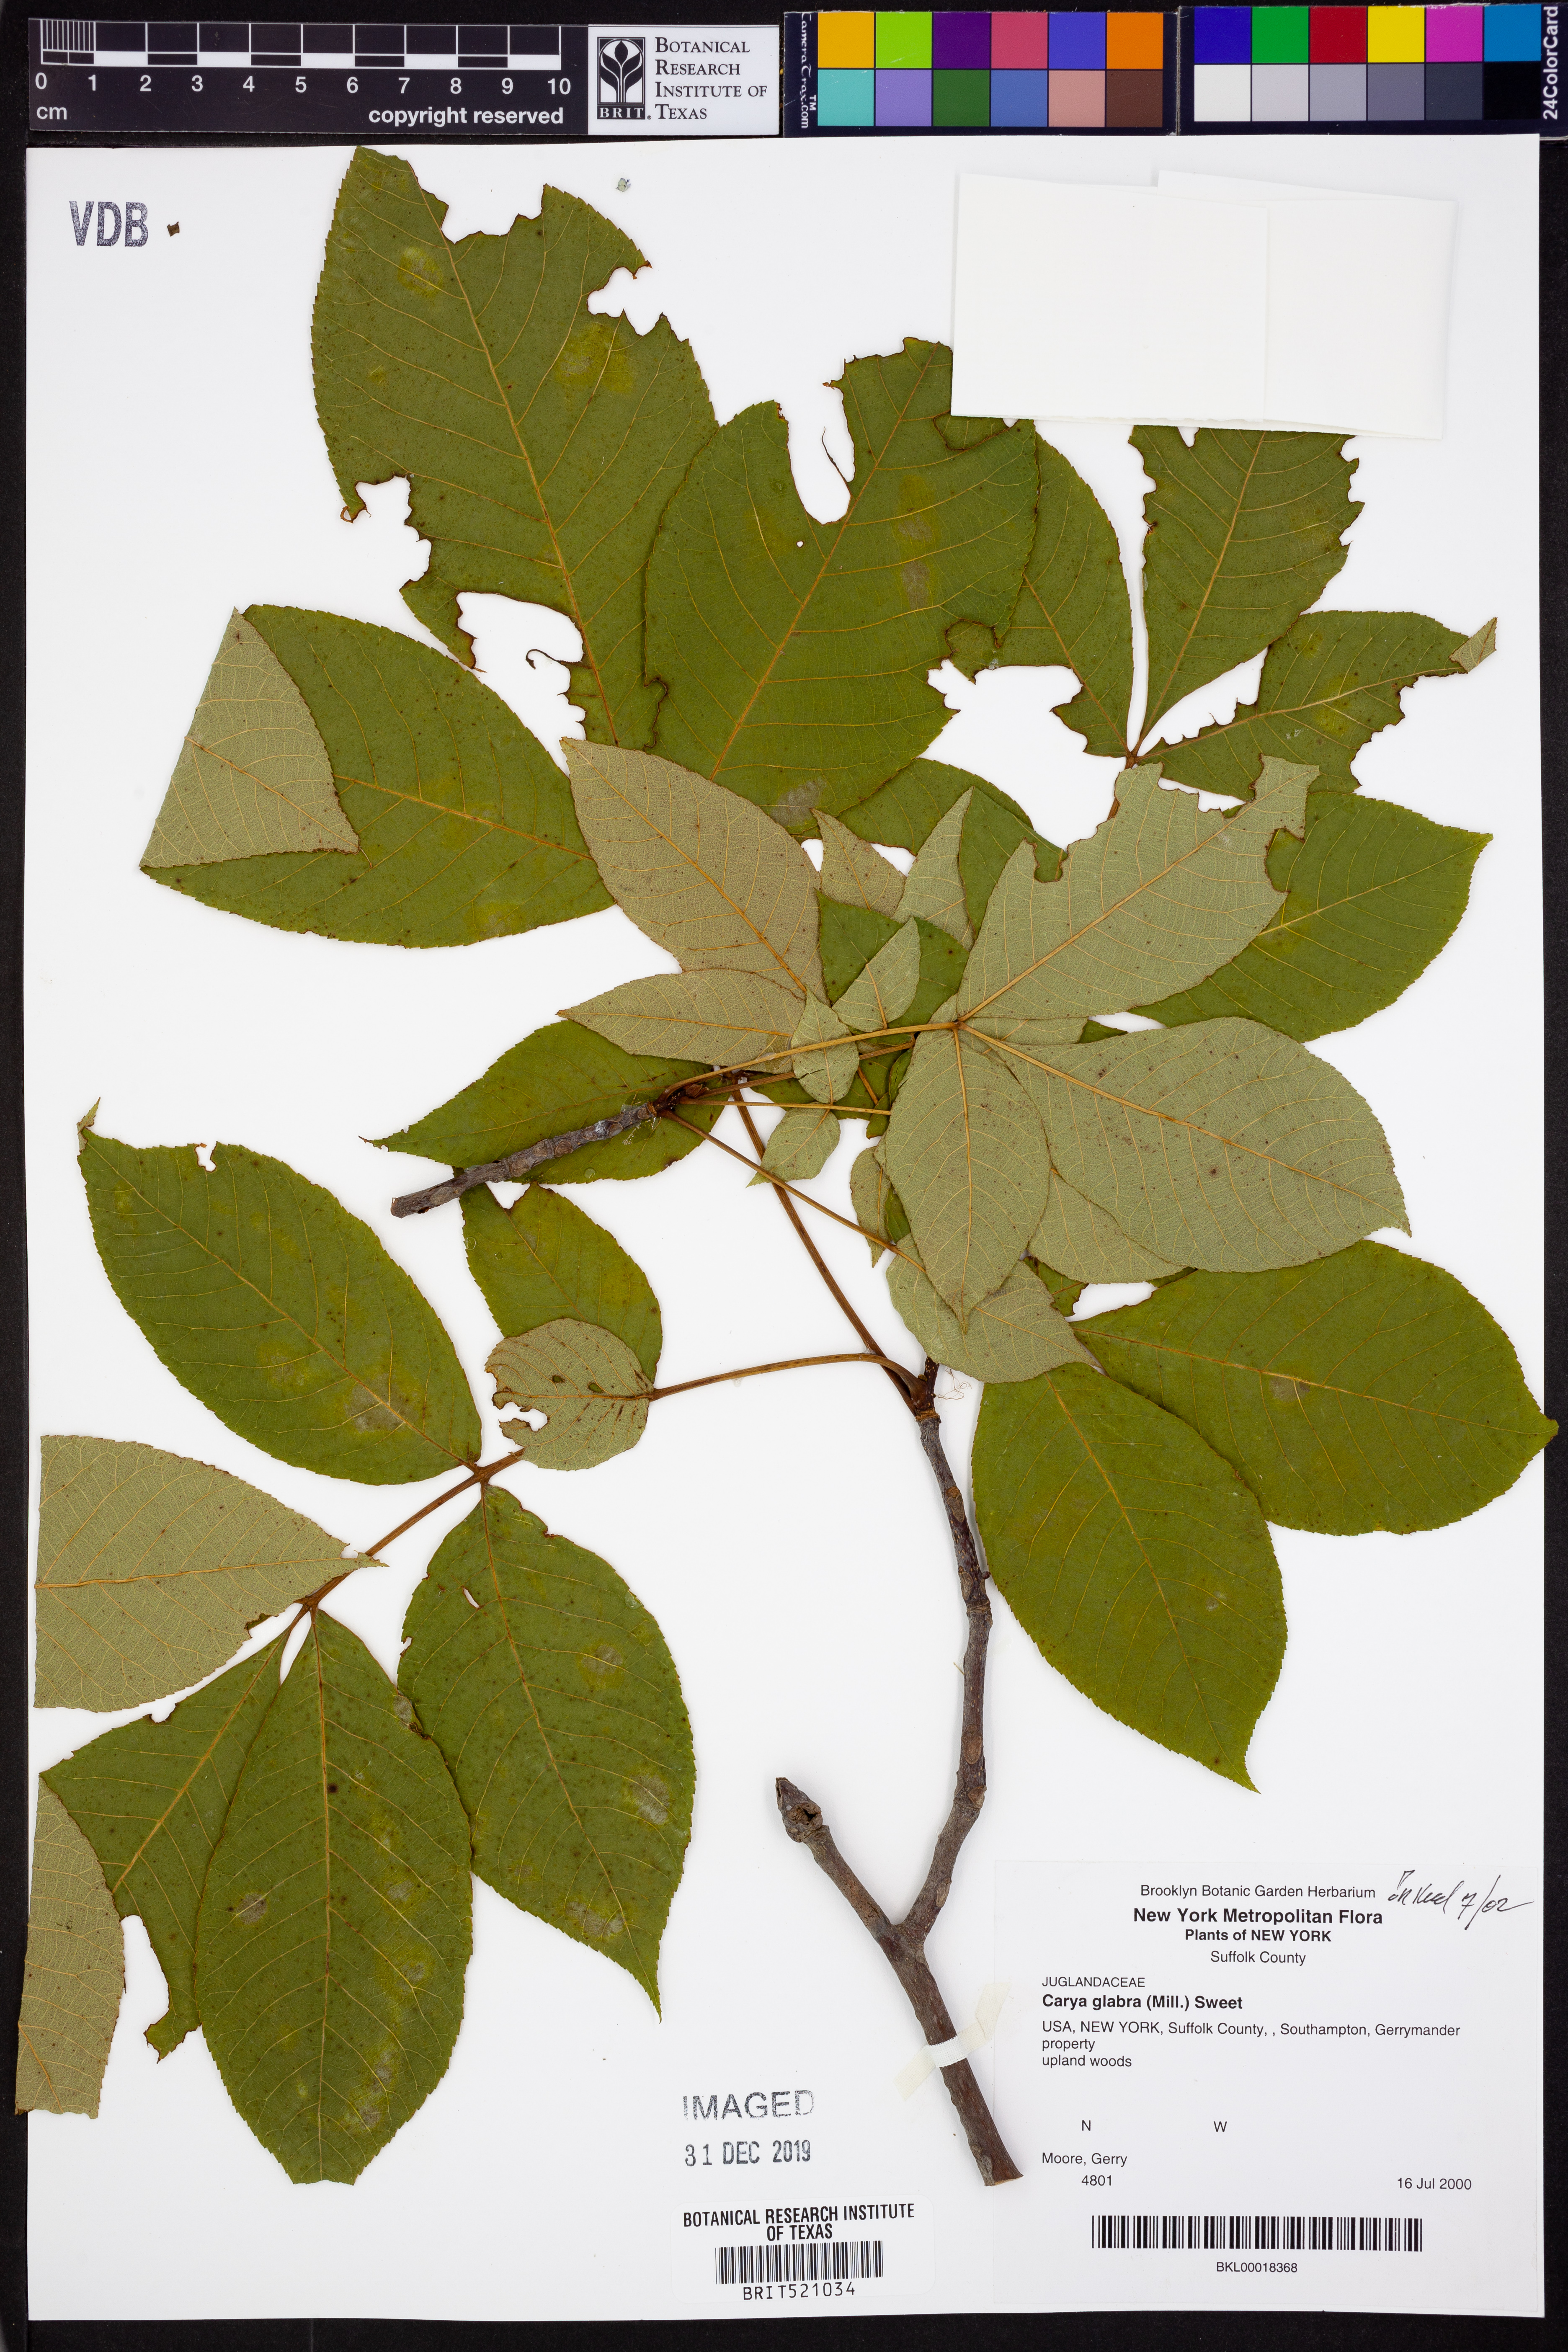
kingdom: Plantae
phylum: Tracheophyta
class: Magnoliopsida
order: Fagales
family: Juglandaceae
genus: Carya
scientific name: Carya glabra
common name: Pignut hickory
